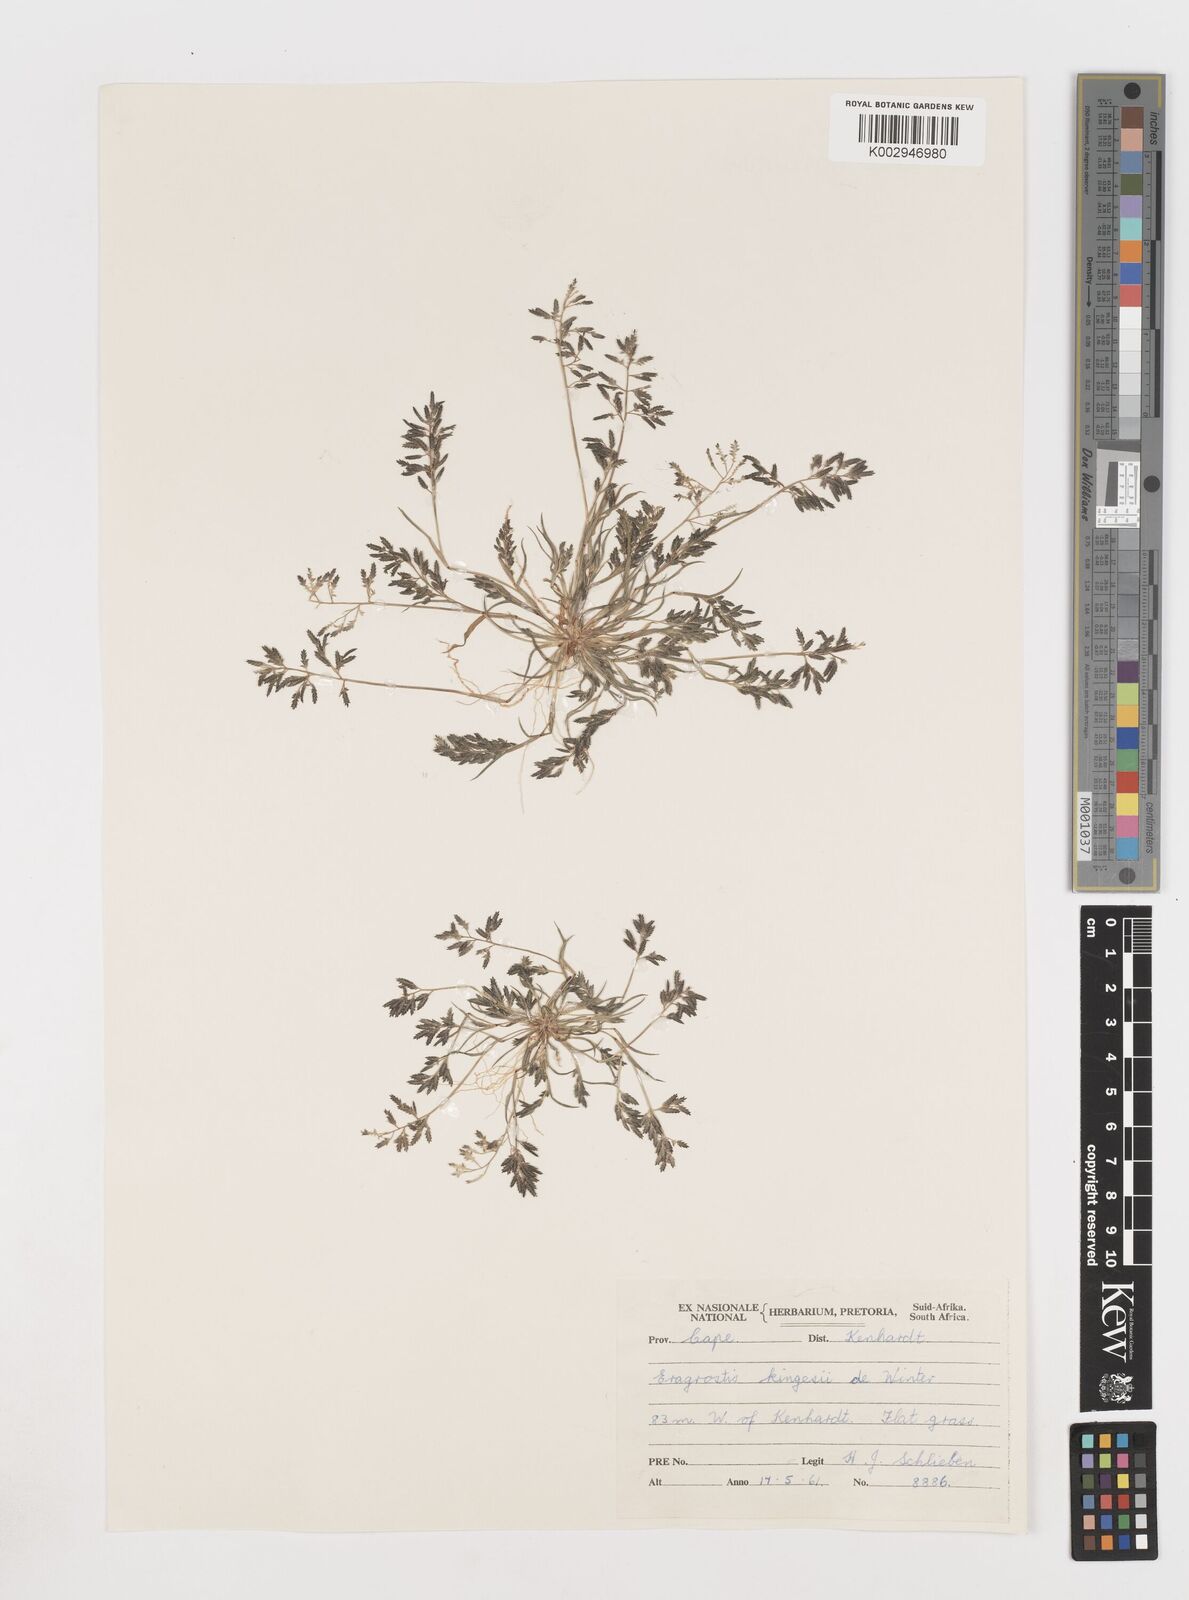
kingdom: Plantae
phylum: Tracheophyta
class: Liliopsida
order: Poales
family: Poaceae
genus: Eragrostis
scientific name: Eragrostis minor
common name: Small love-grass
